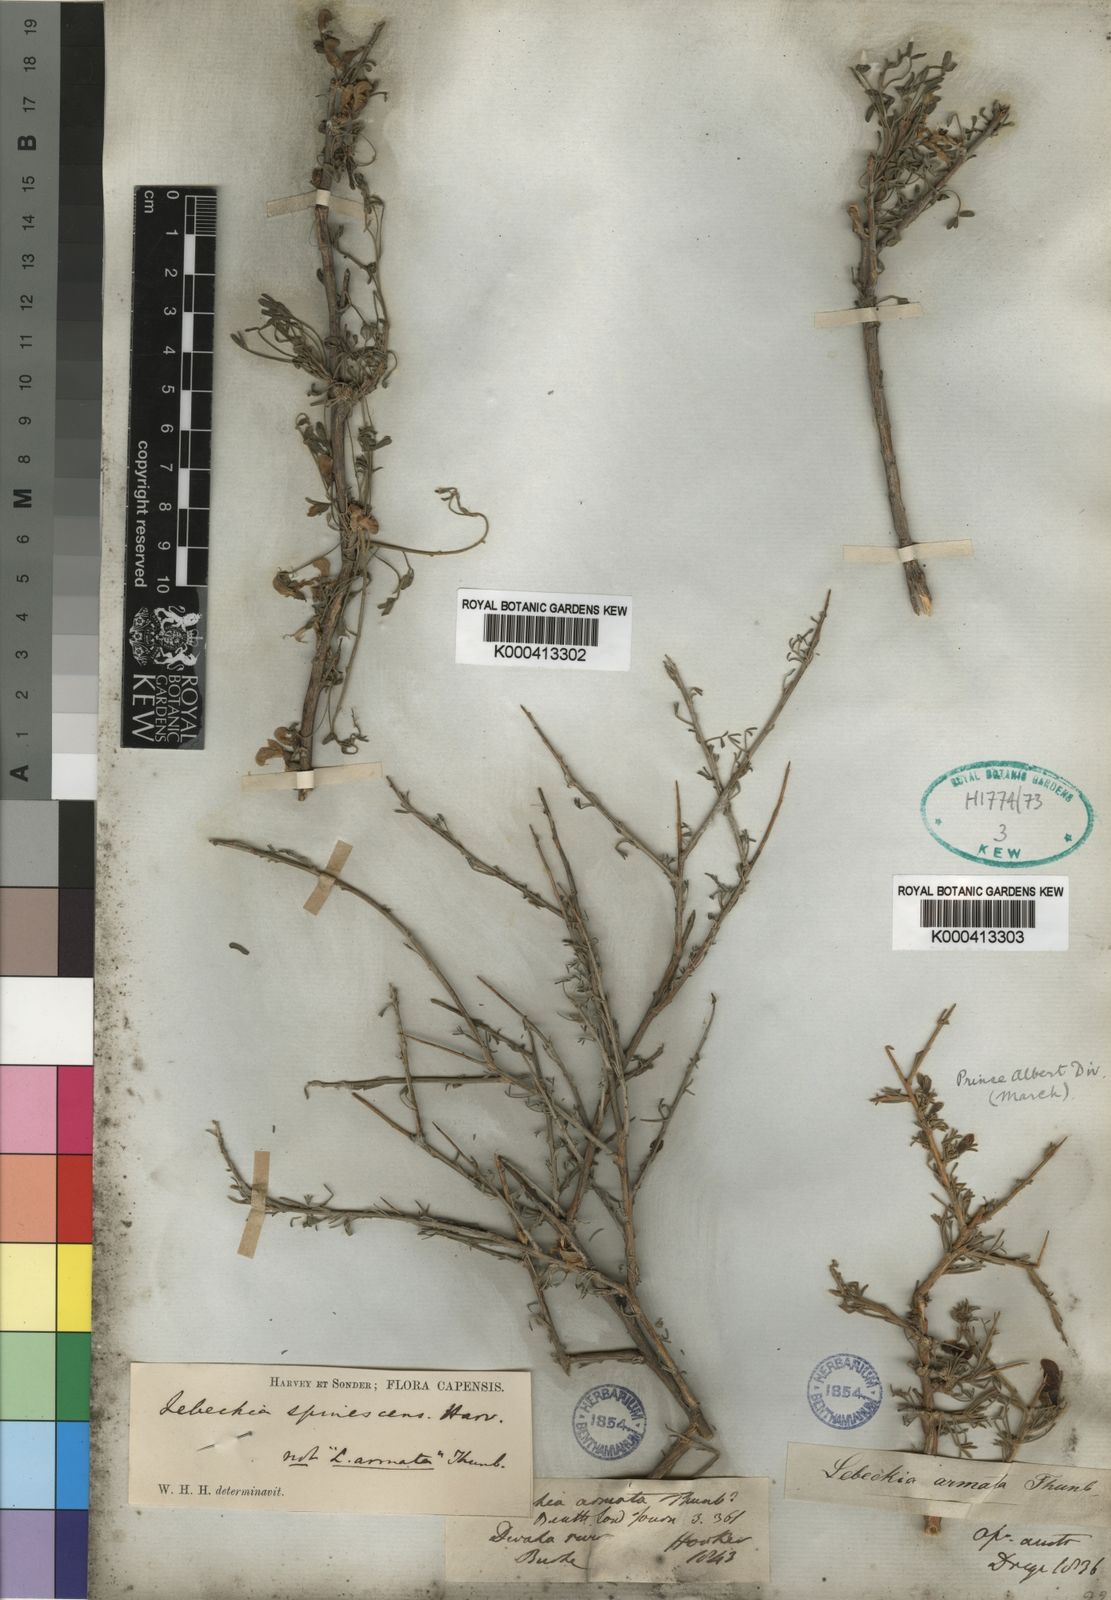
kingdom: Plantae
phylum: Tracheophyta
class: Magnoliopsida
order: Fabales
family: Fabaceae
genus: Calobota
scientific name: Calobota spinescens
